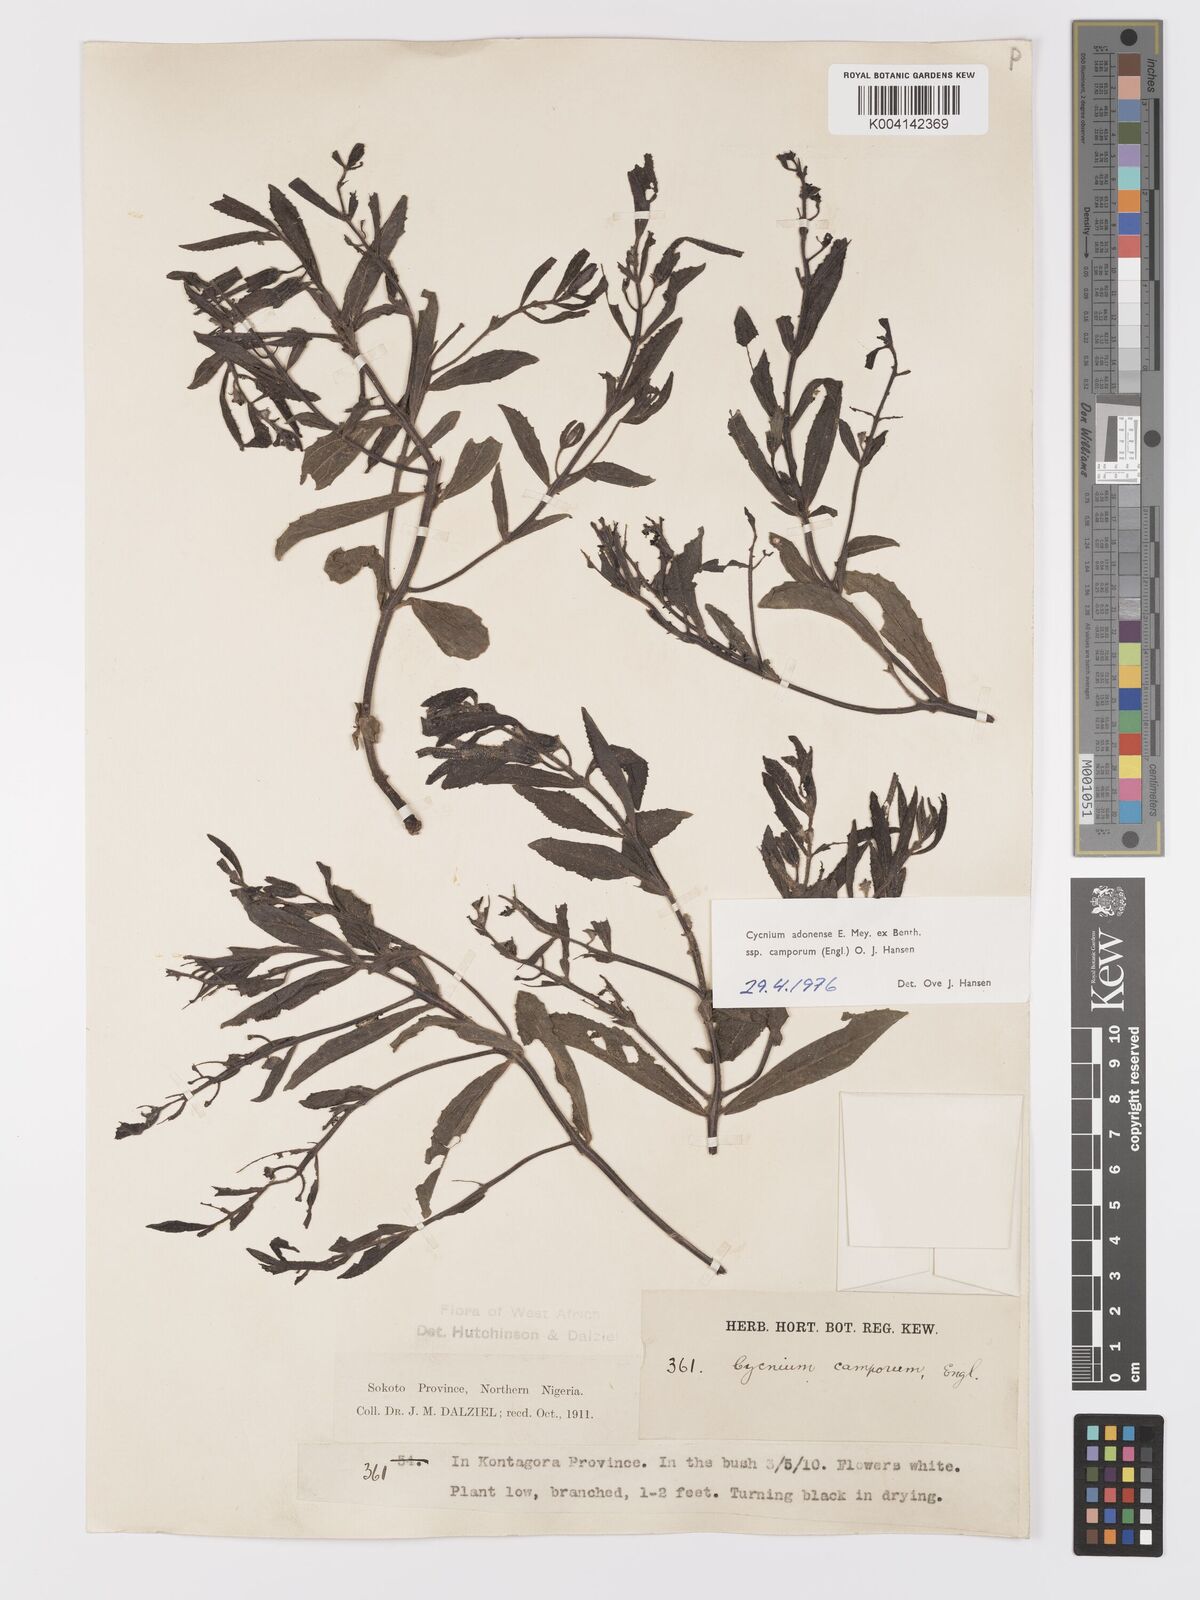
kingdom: Plantae
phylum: Tracheophyta
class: Magnoliopsida
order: Lamiales
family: Orobanchaceae
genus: Cycnium
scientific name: Cycnium adoense
